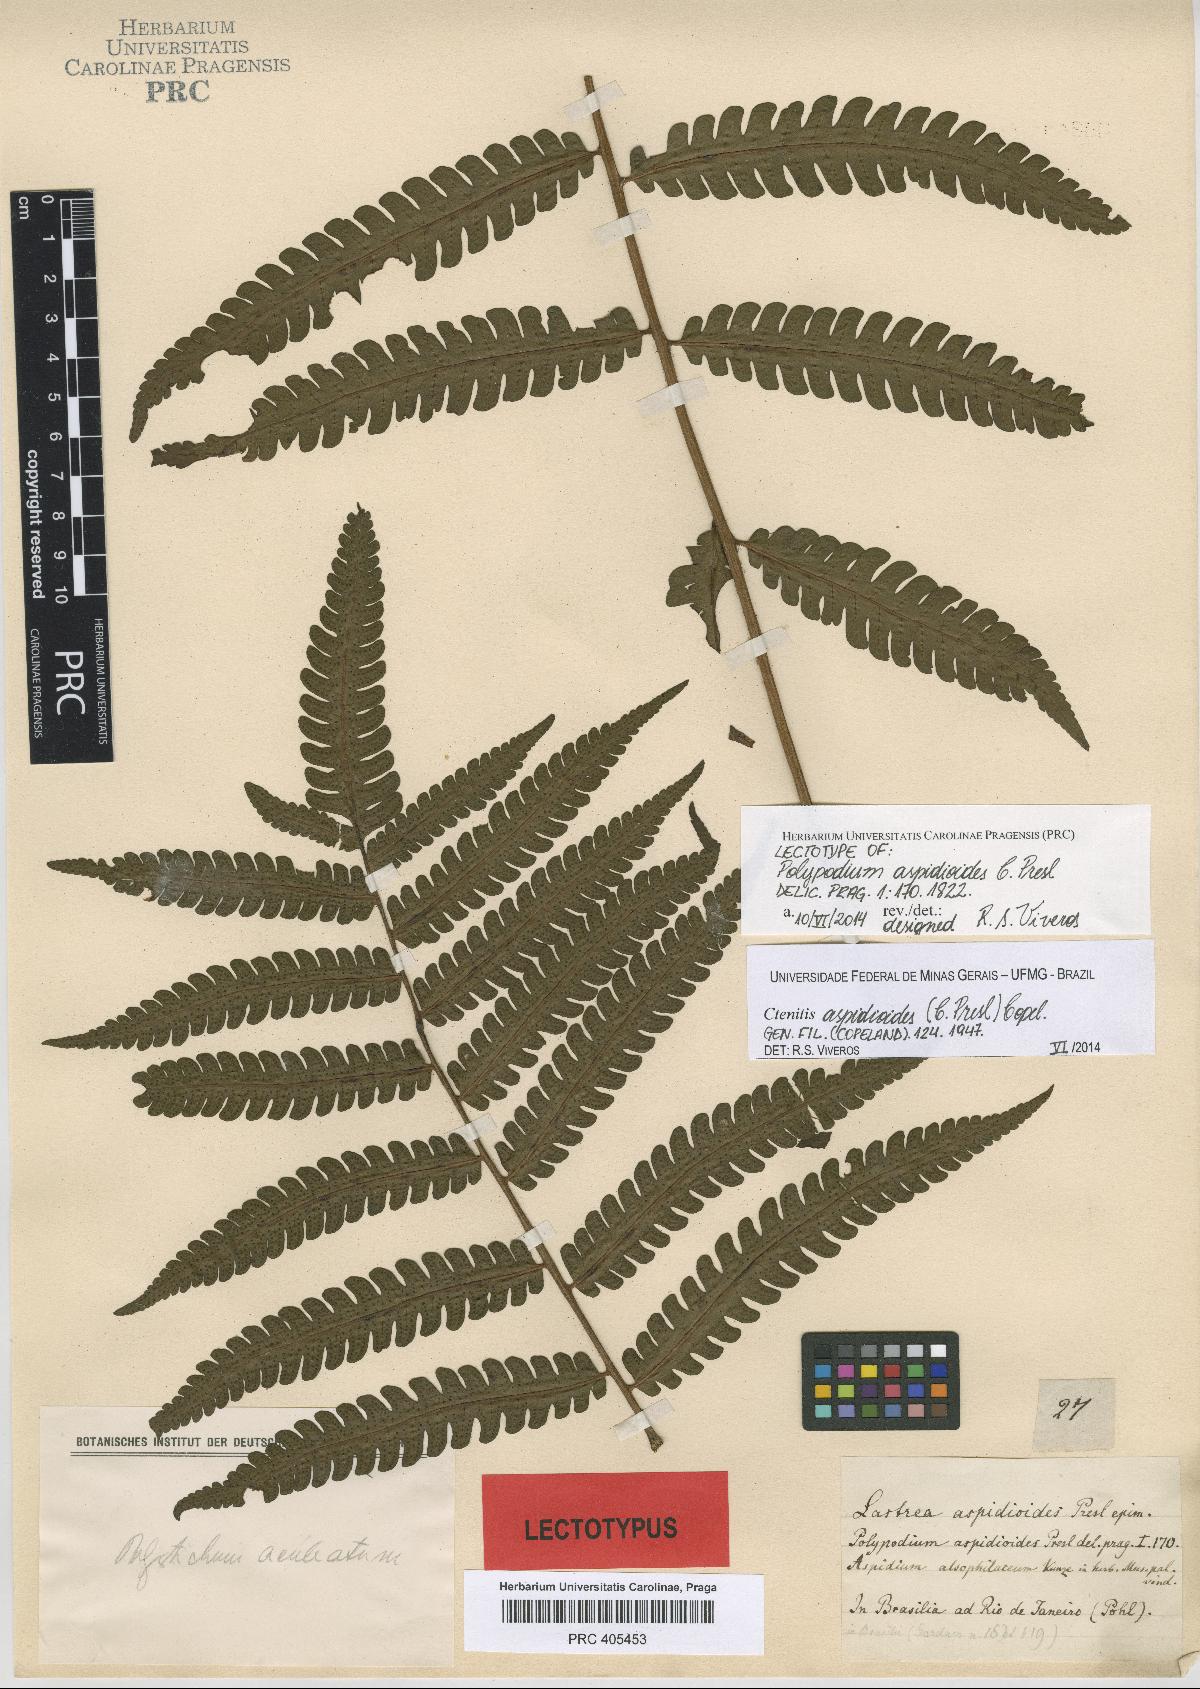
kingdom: Plantae
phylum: Tracheophyta
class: Polypodiopsida
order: Polypodiales
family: Dryopteridaceae
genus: Ctenitis
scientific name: Ctenitis aspidioides
